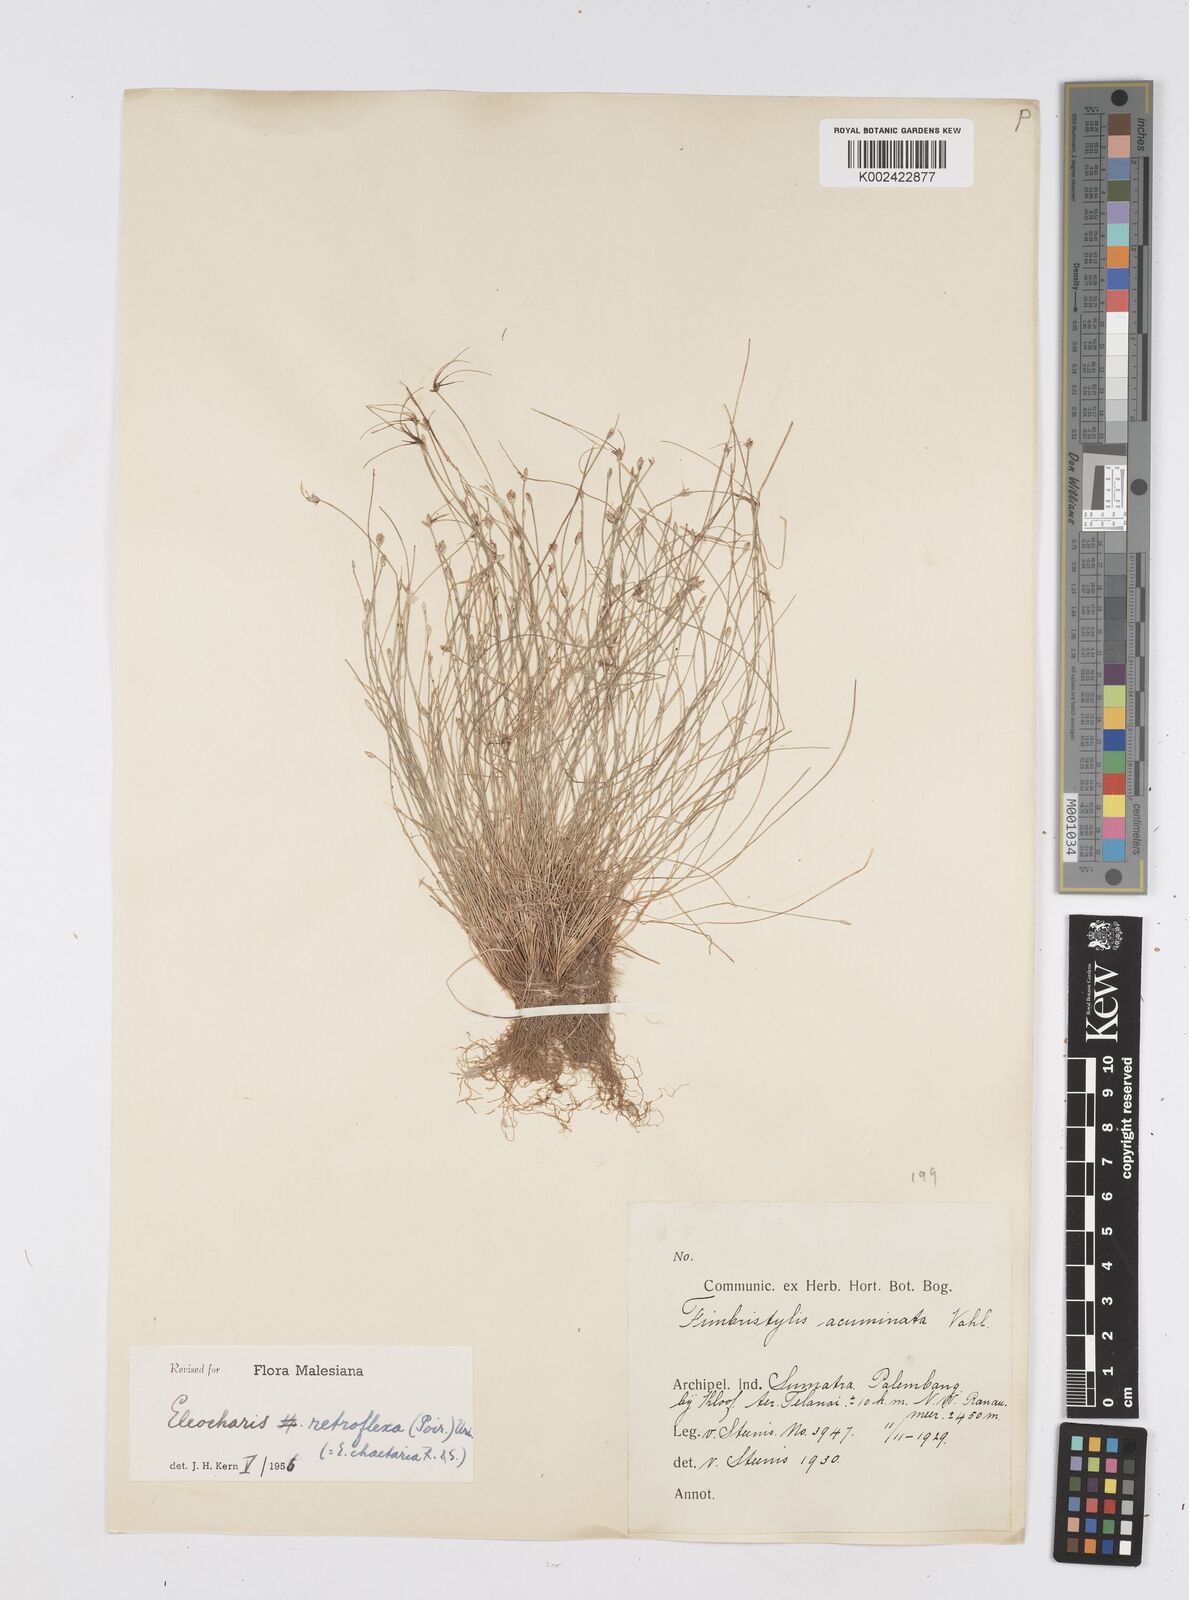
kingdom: Plantae
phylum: Tracheophyta
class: Liliopsida
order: Poales
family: Cyperaceae
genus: Eleocharis
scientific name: Eleocharis retroflexa
